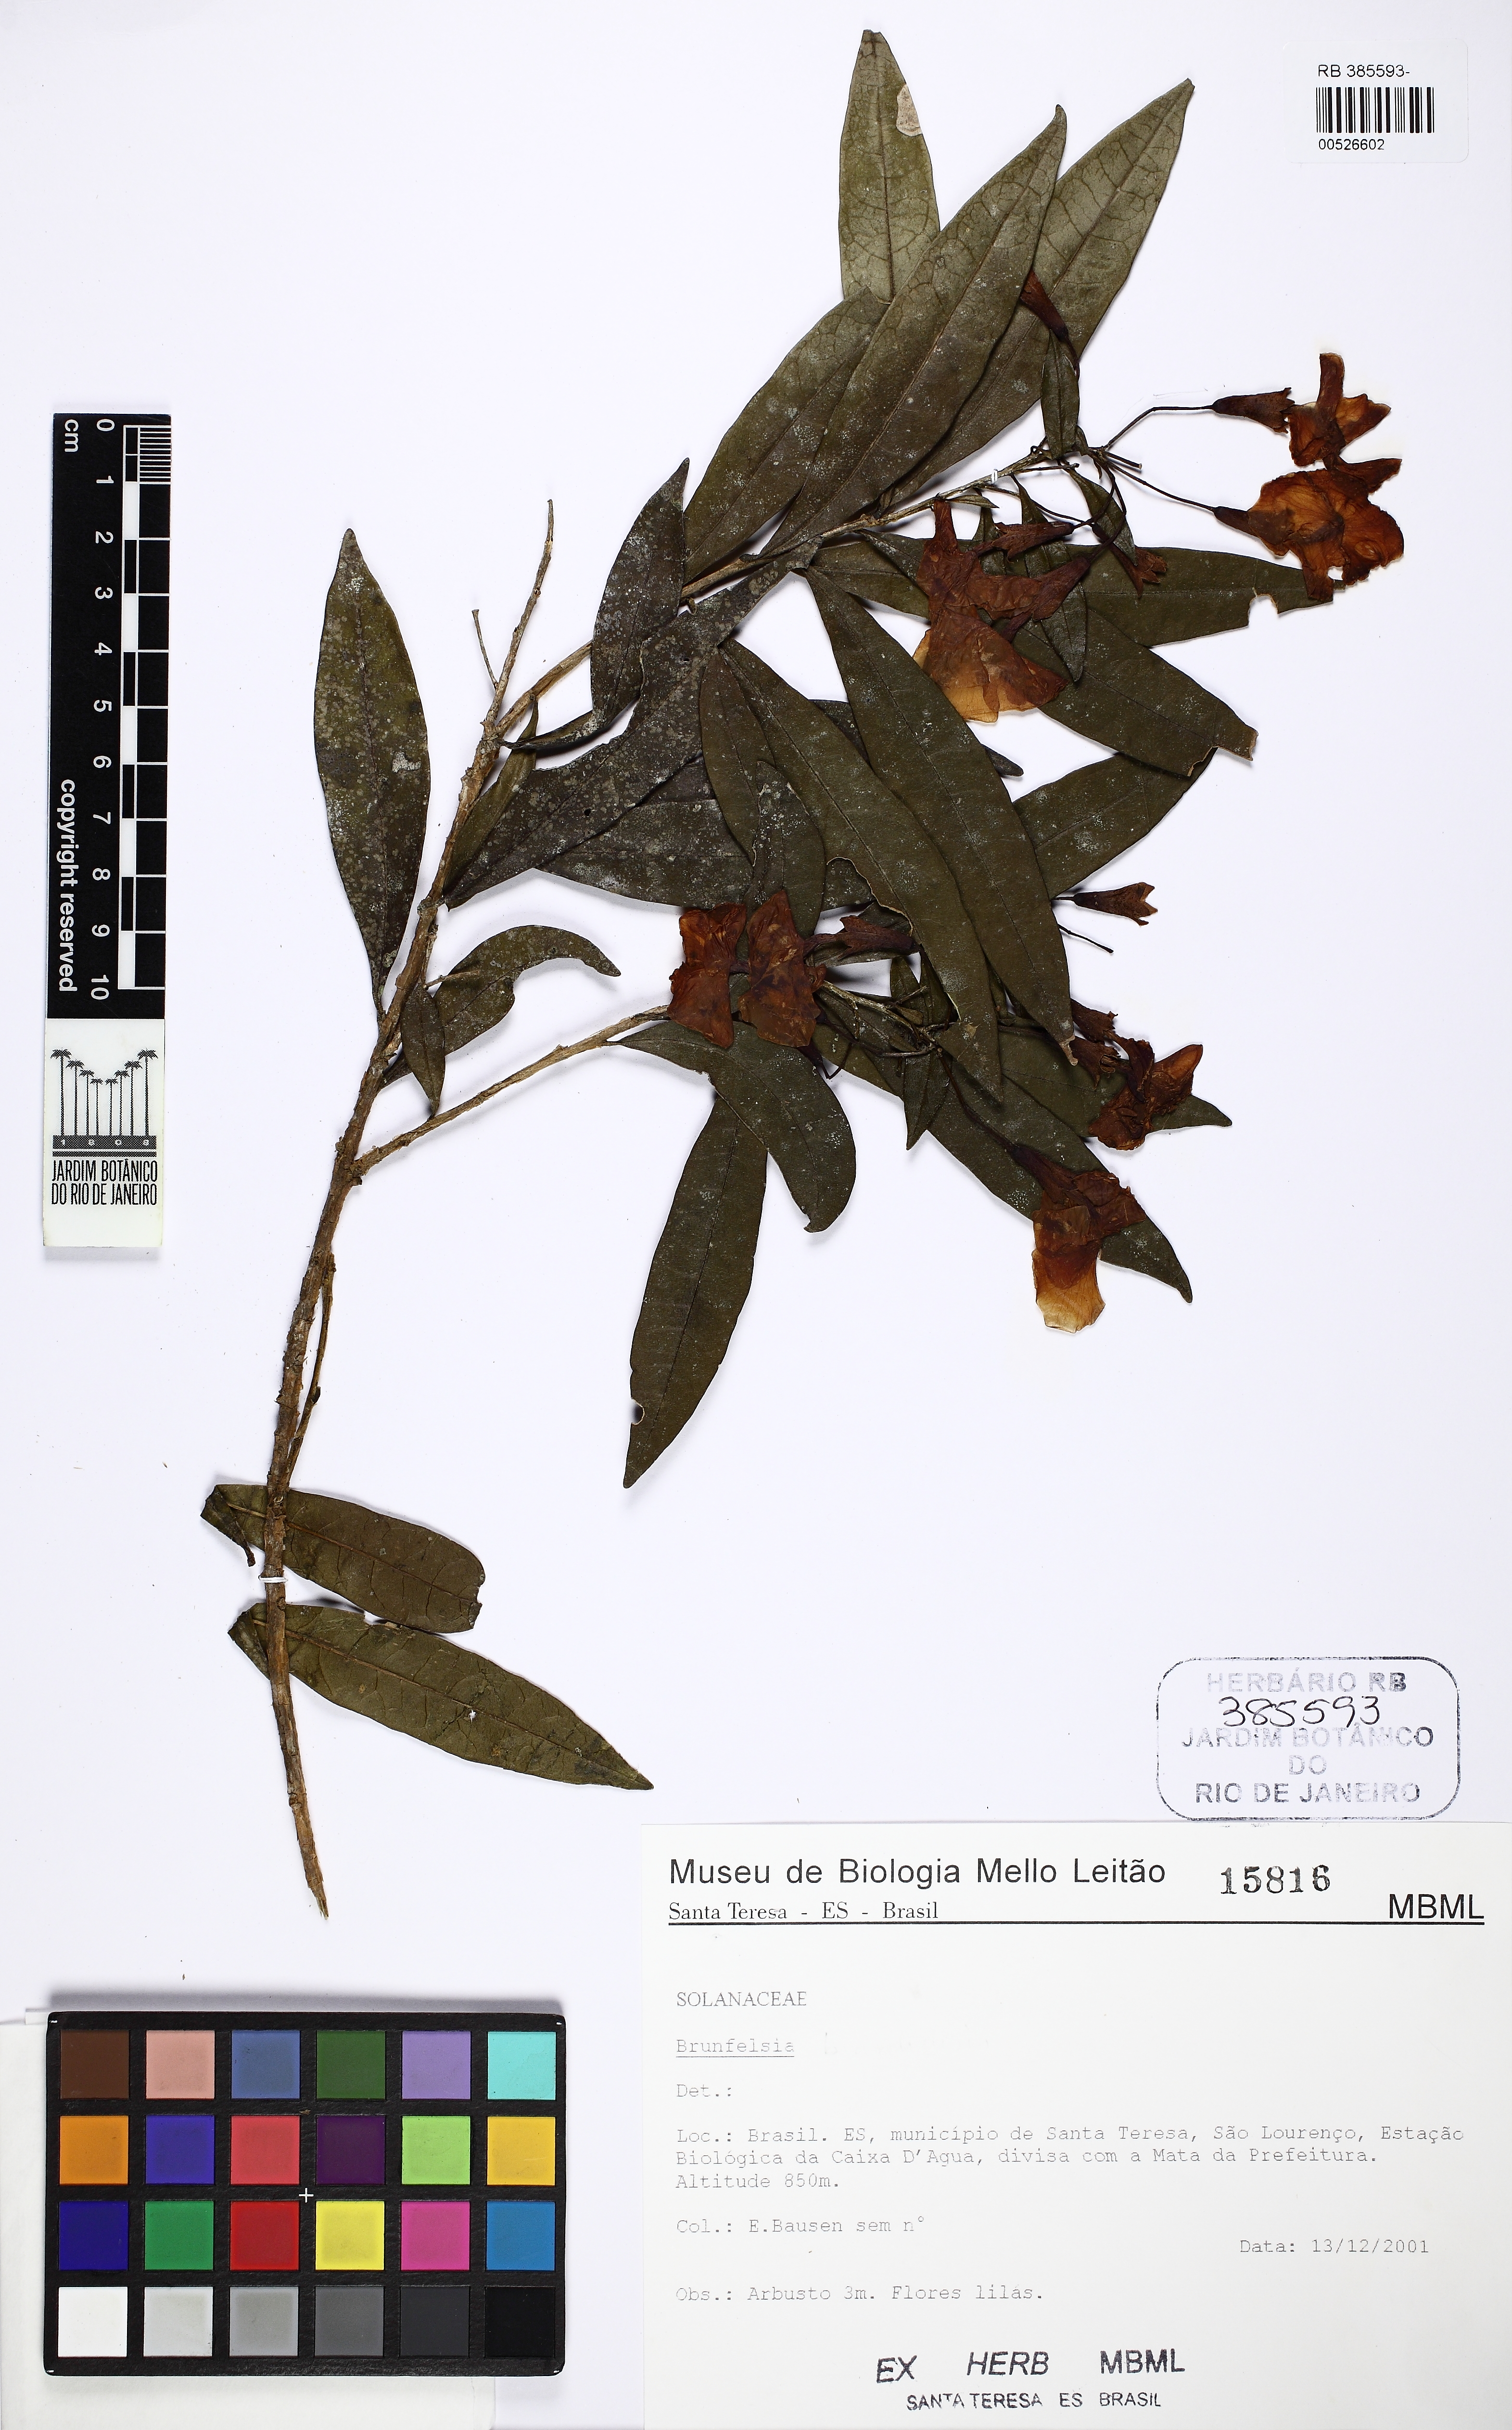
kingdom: Plantae
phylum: Tracheophyta
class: Magnoliopsida
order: Solanales
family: Solanaceae
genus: Brunfelsia
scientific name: Brunfelsia
